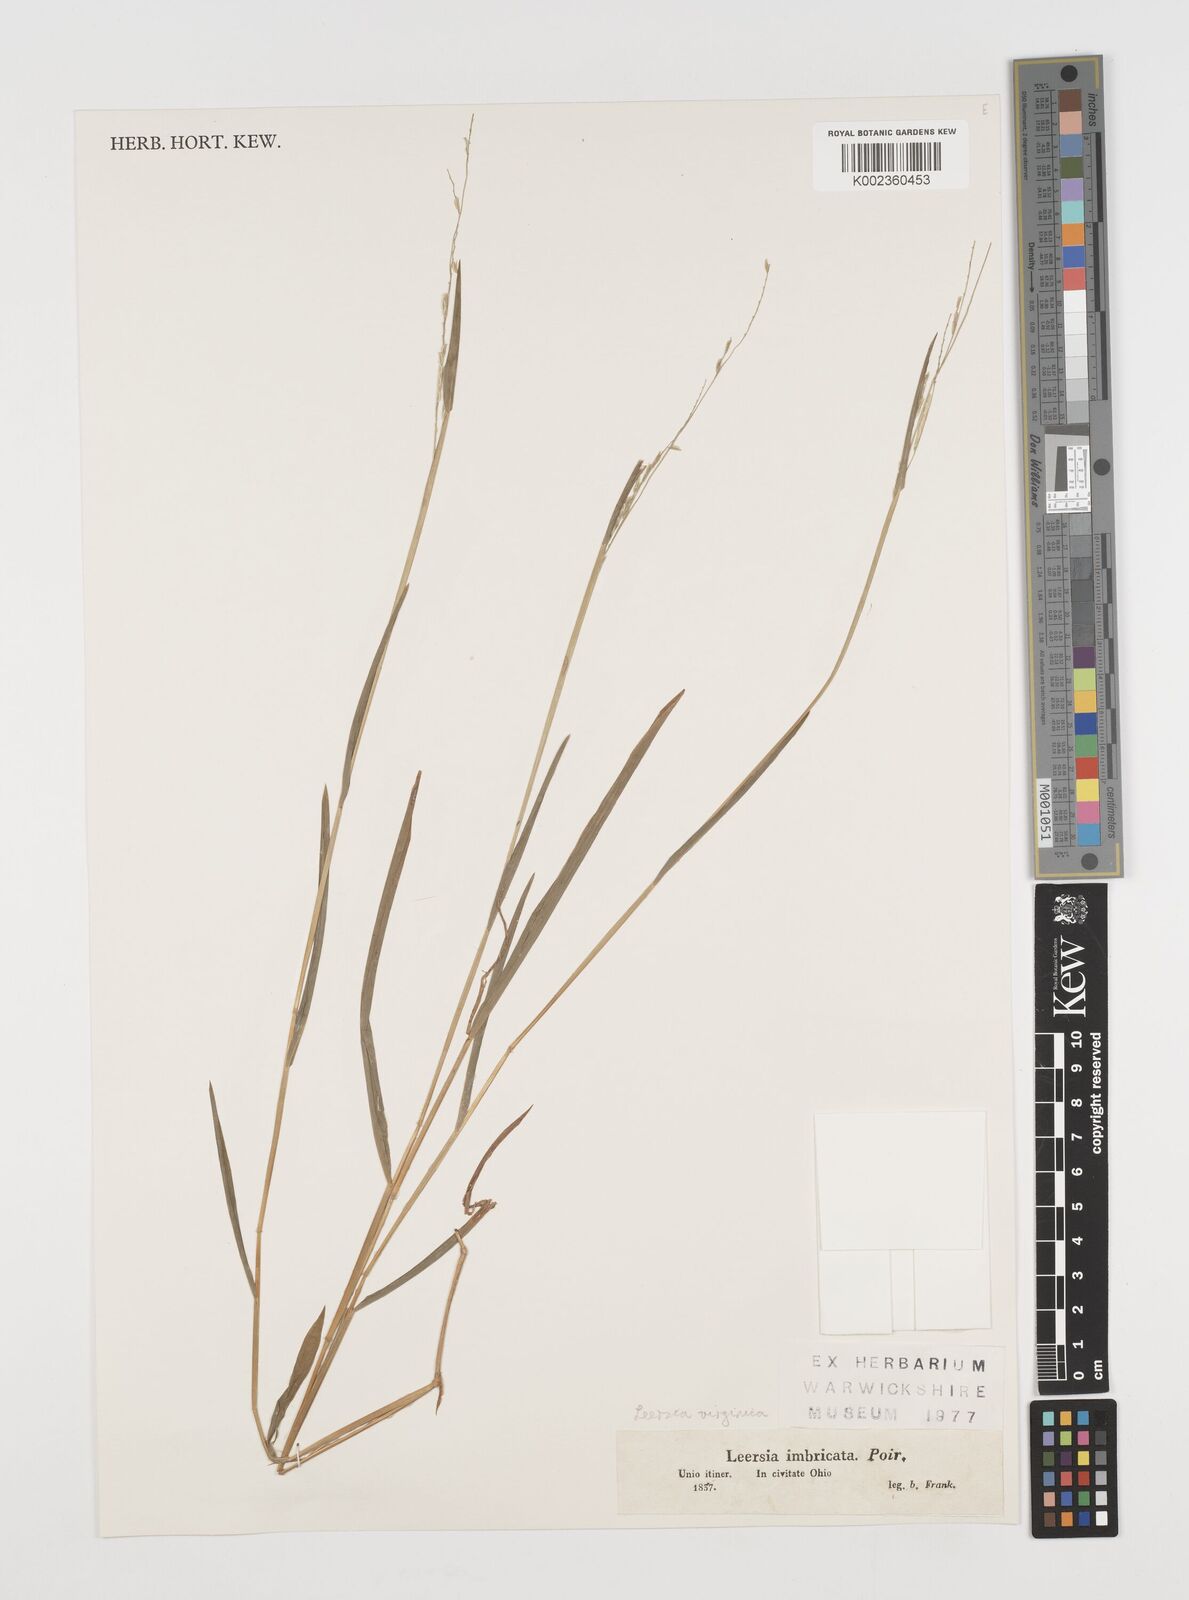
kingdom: Plantae
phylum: Tracheophyta
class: Liliopsida
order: Poales
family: Poaceae
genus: Leersia
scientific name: Leersia virginica
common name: White cutgrass
